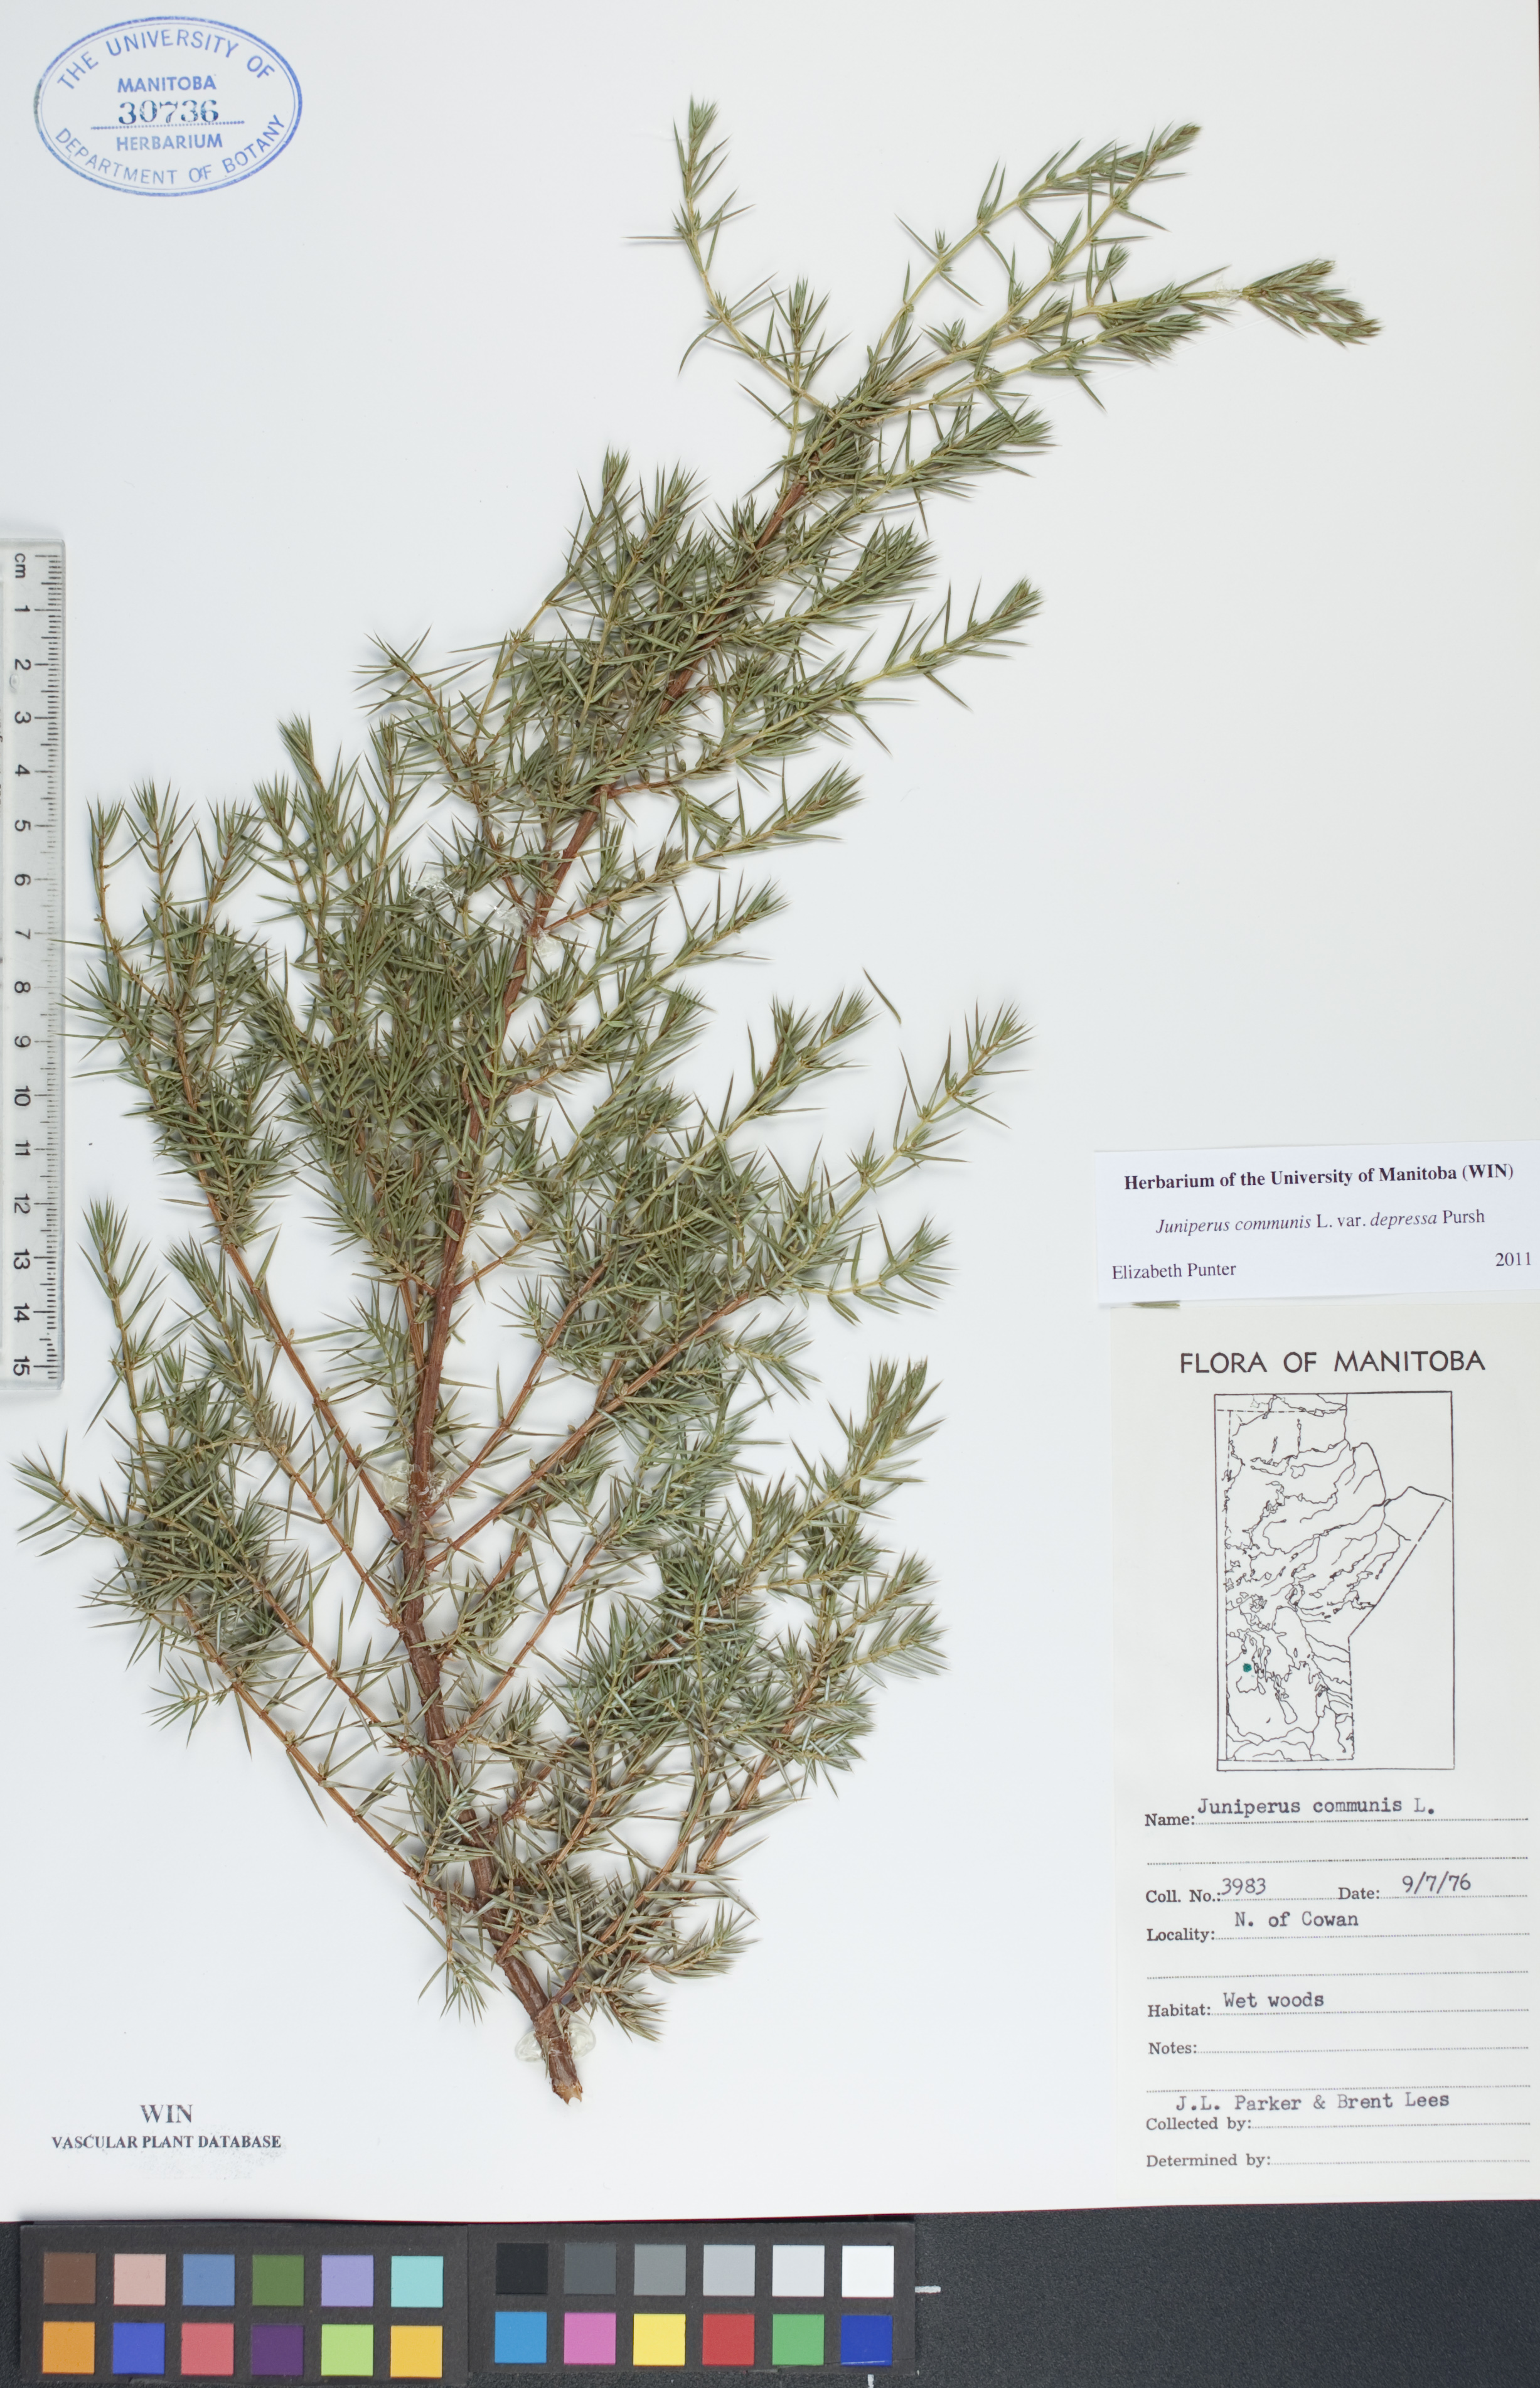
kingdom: Plantae
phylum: Tracheophyta
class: Pinopsida
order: Pinales
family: Cupressaceae
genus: Juniperus
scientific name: Juniperus communis
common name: Common juniper
